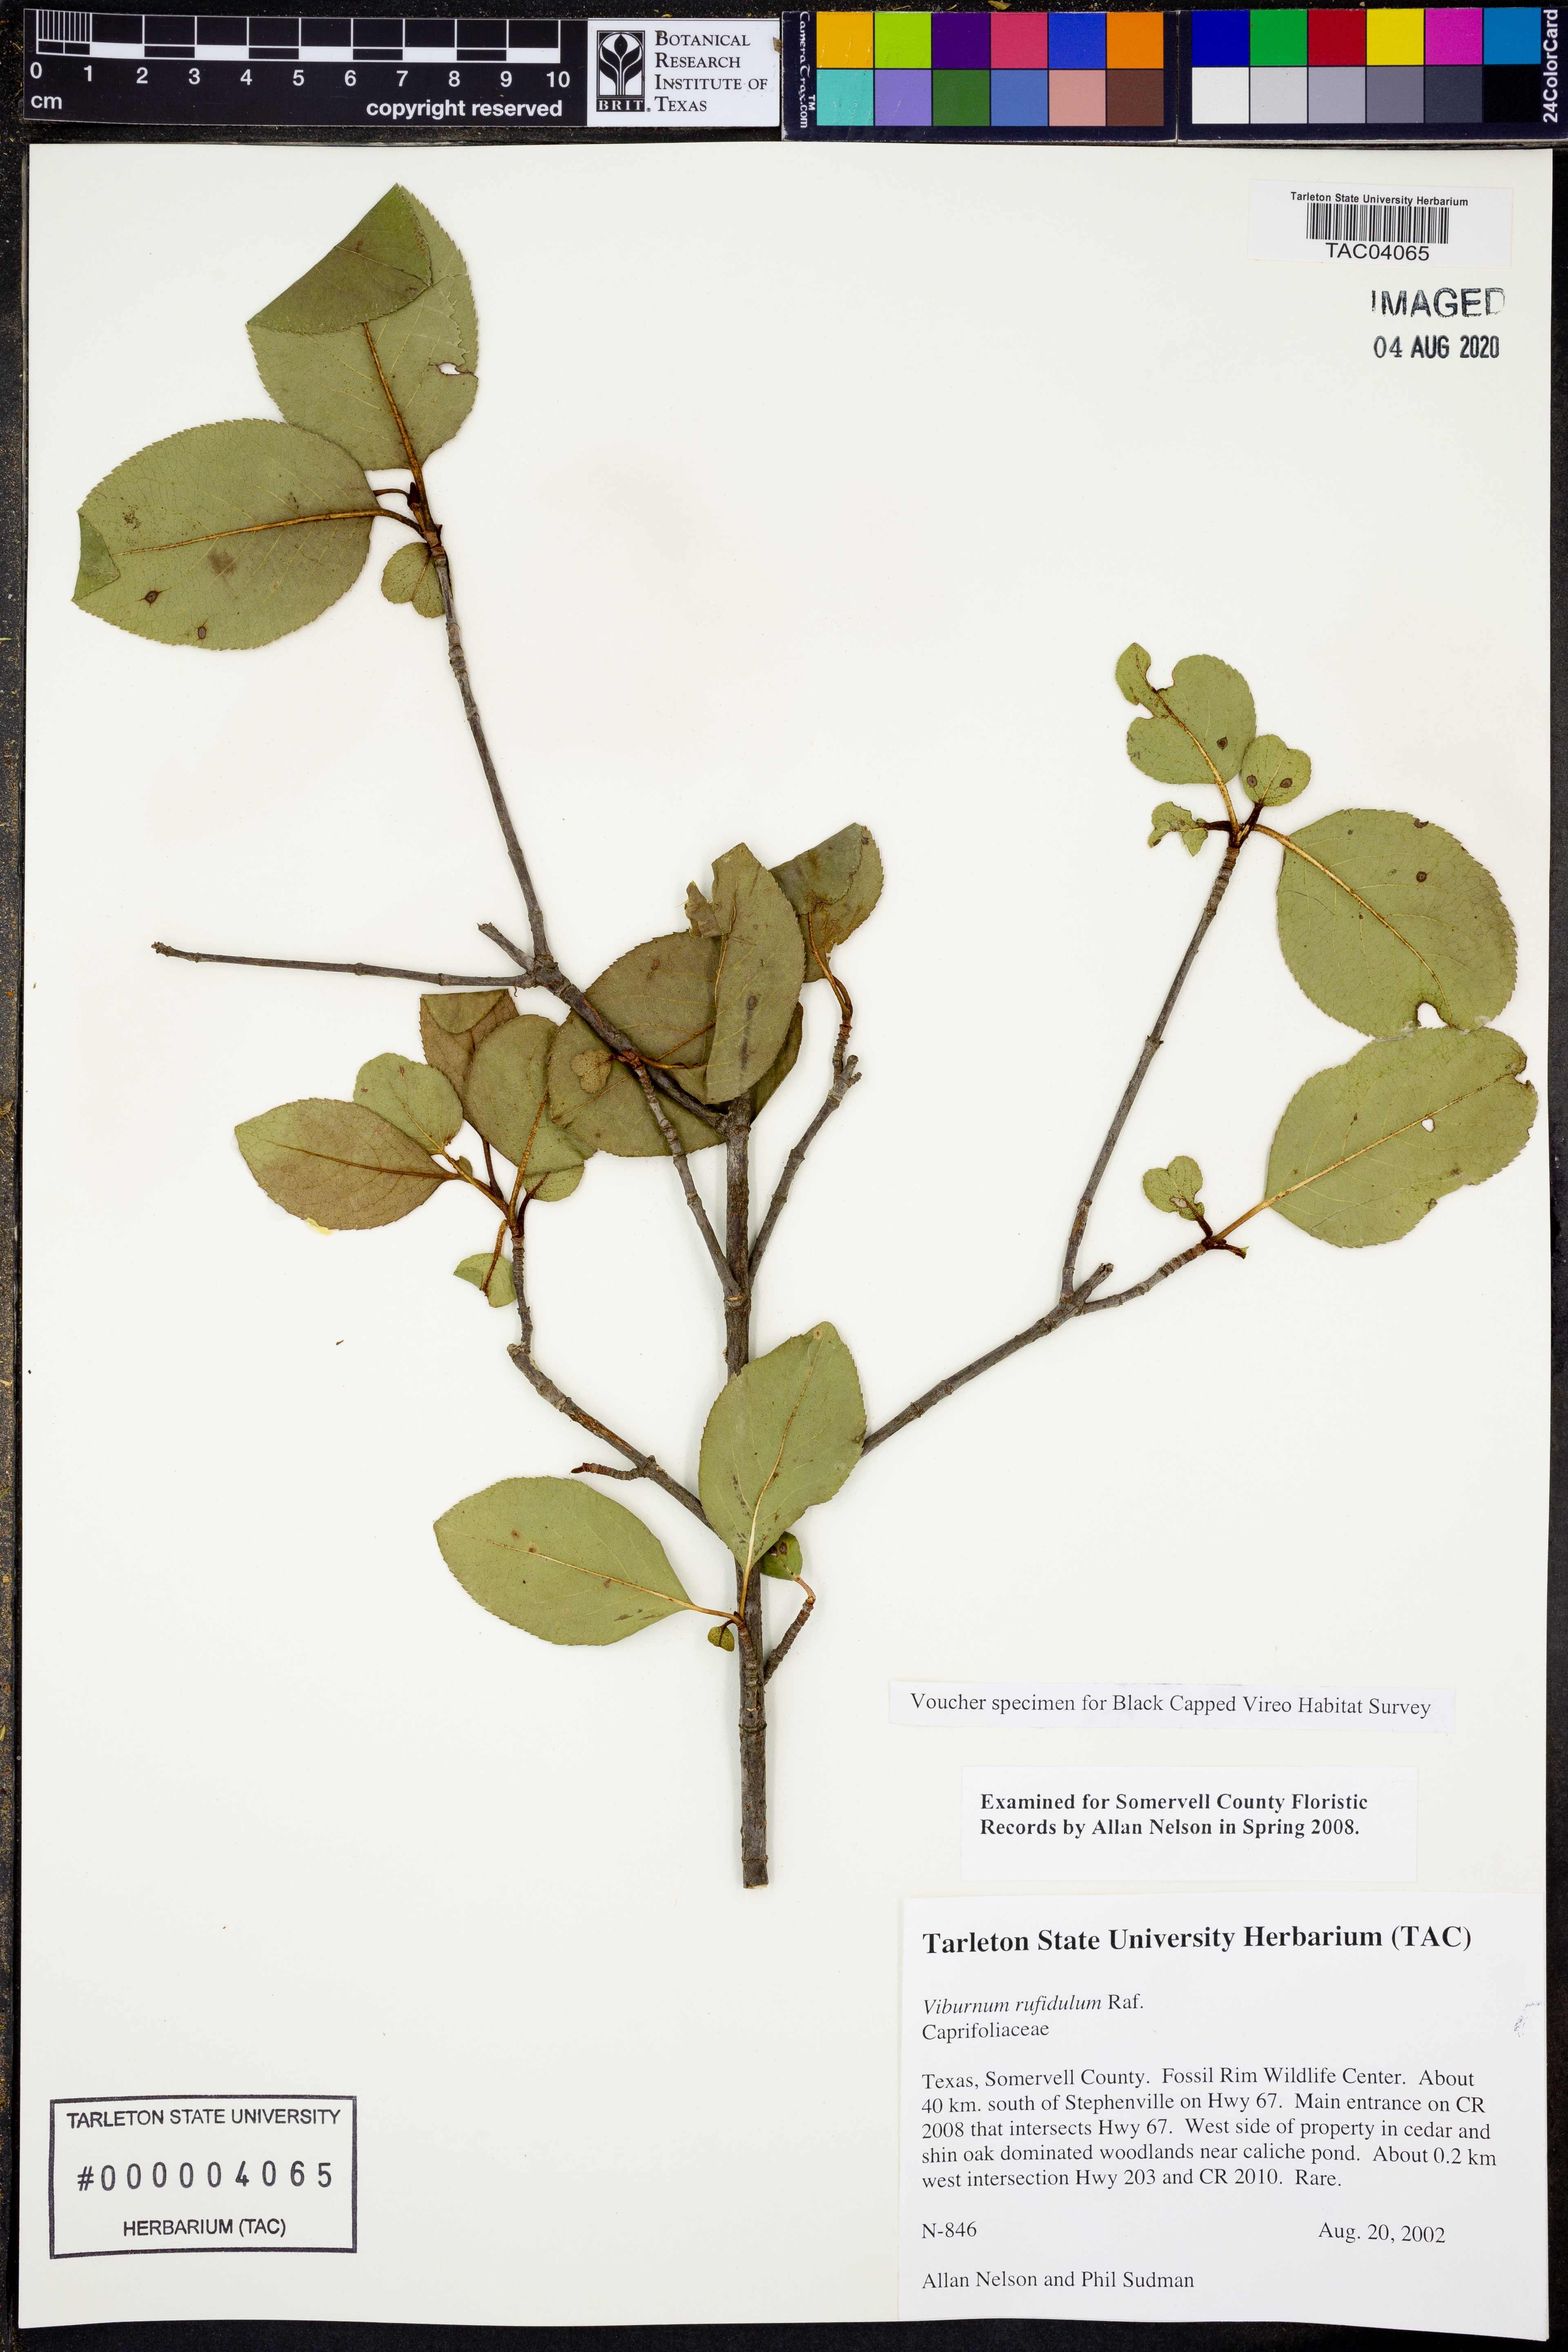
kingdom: Plantae
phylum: Tracheophyta
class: Magnoliopsida
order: Dipsacales
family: Viburnaceae
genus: Viburnum
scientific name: Viburnum rufidulum
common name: Blue haw
